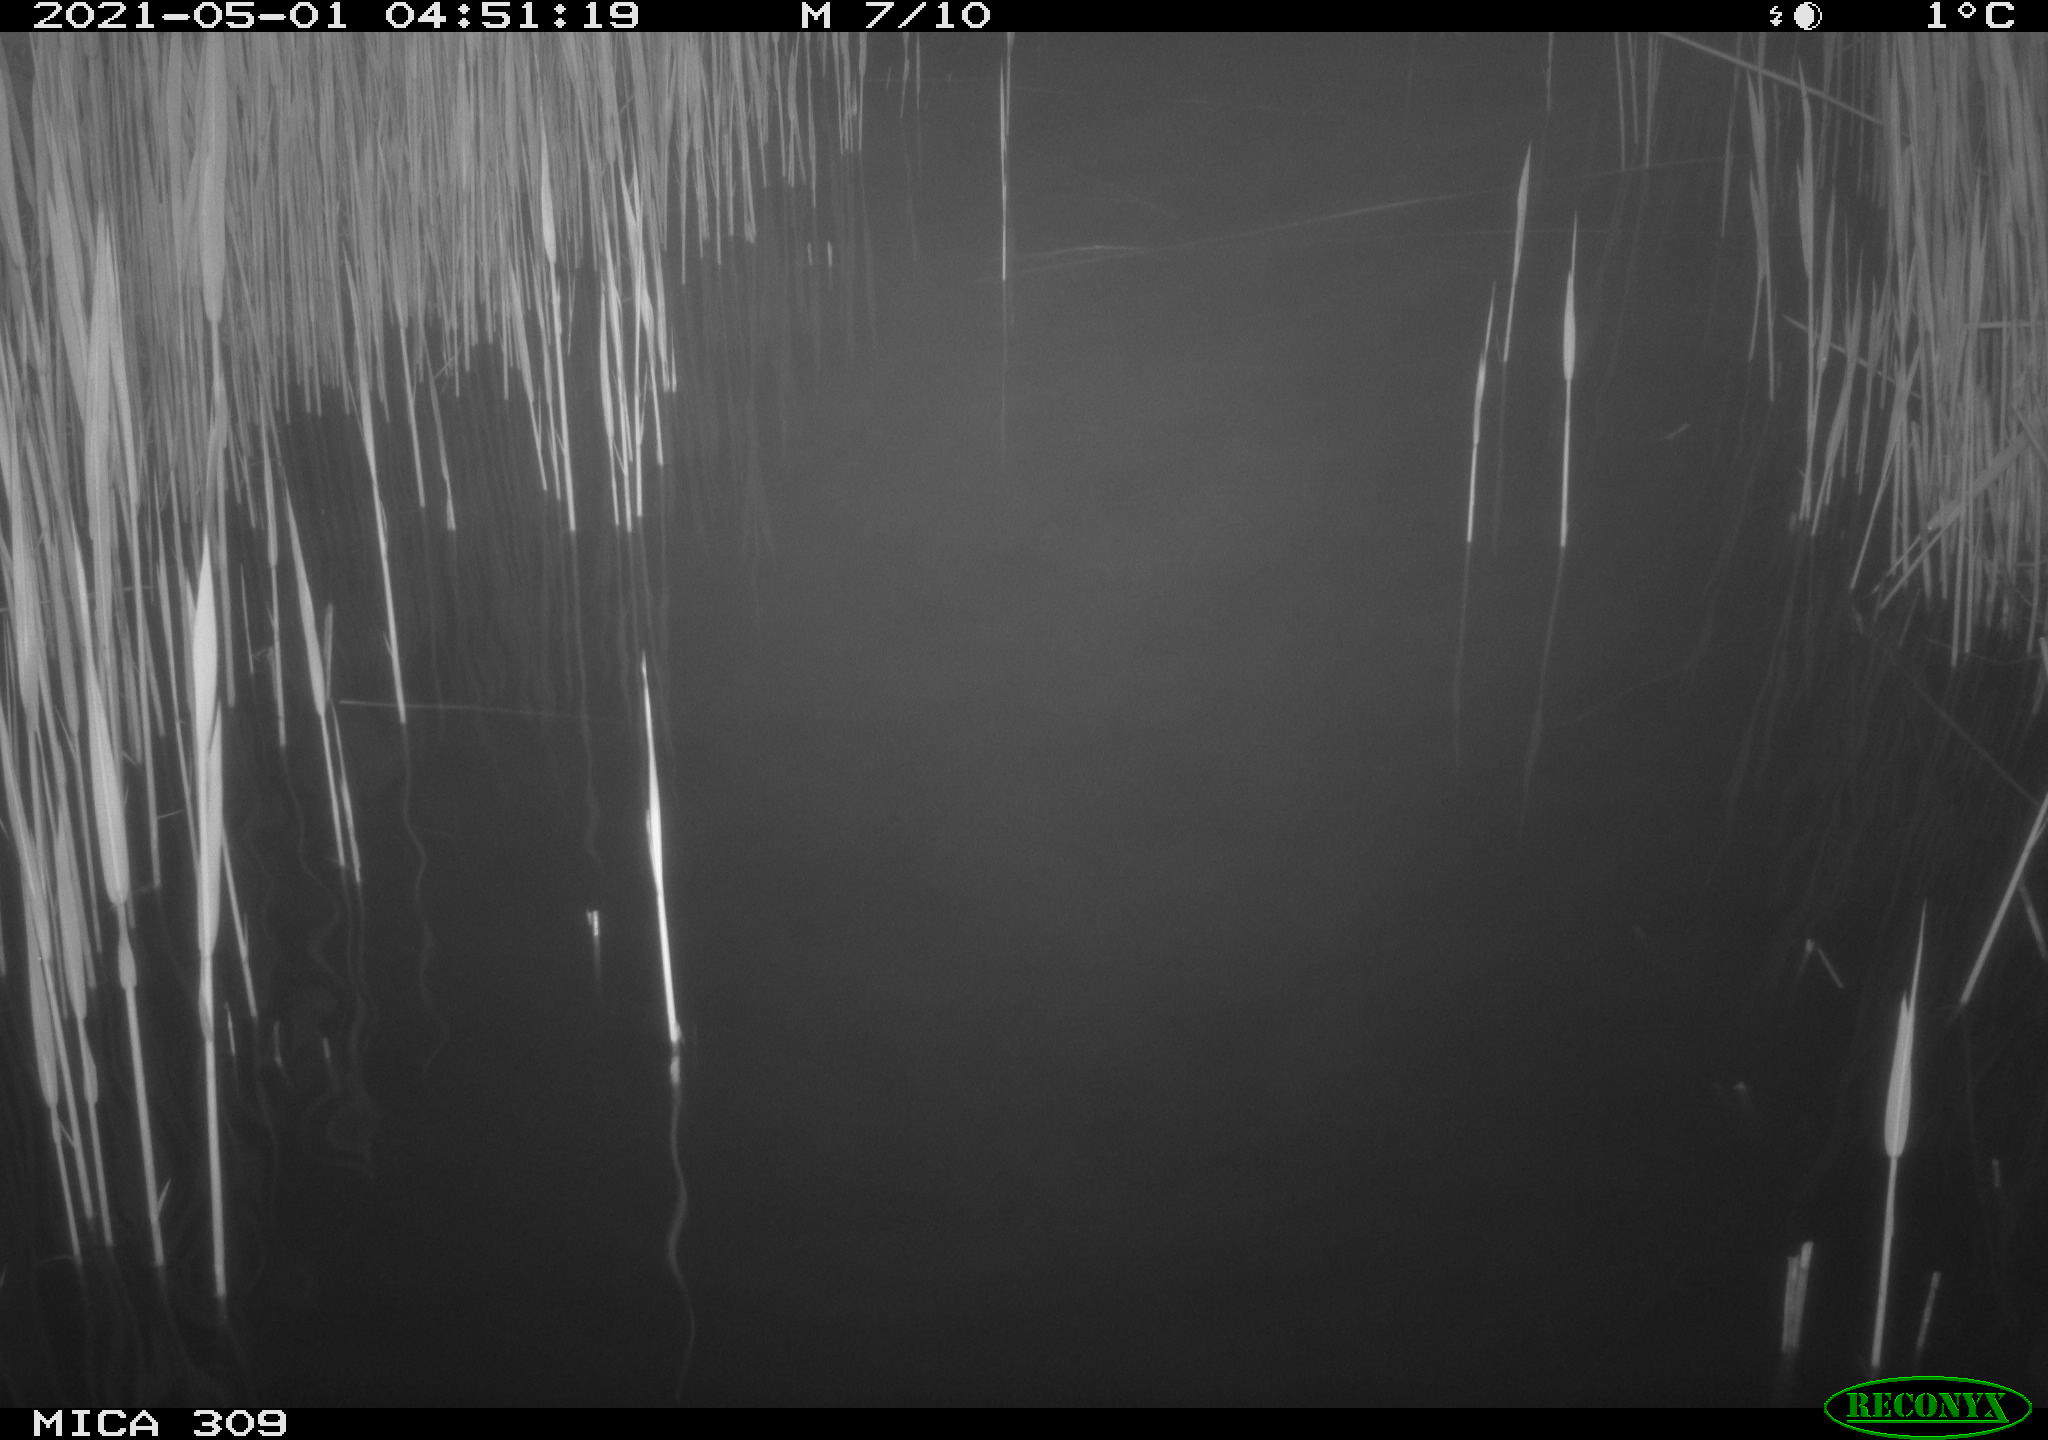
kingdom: Animalia
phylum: Chordata
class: Aves
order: Anseriformes
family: Anatidae
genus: Anas
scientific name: Anas platyrhynchos
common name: Mallard
